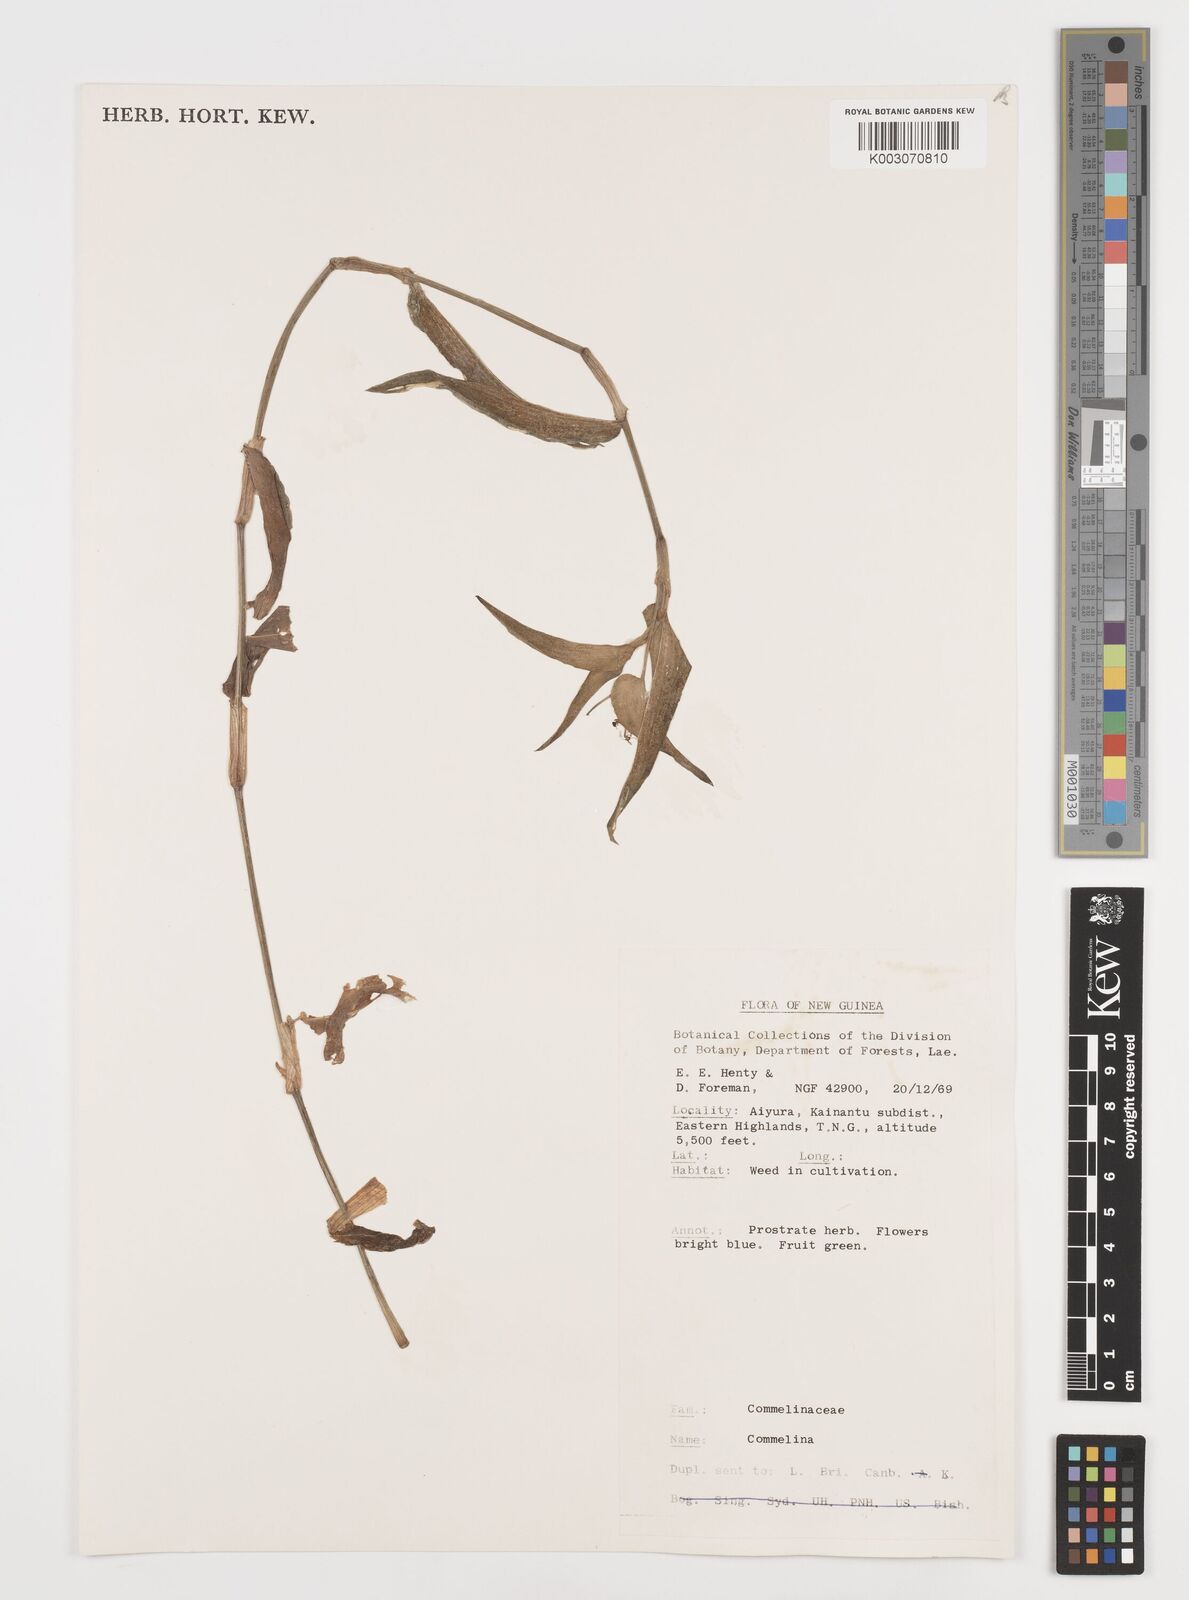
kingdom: Plantae
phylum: Tracheophyta
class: Liliopsida
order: Commelinales
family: Commelinaceae
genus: Commelina
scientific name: Commelina
